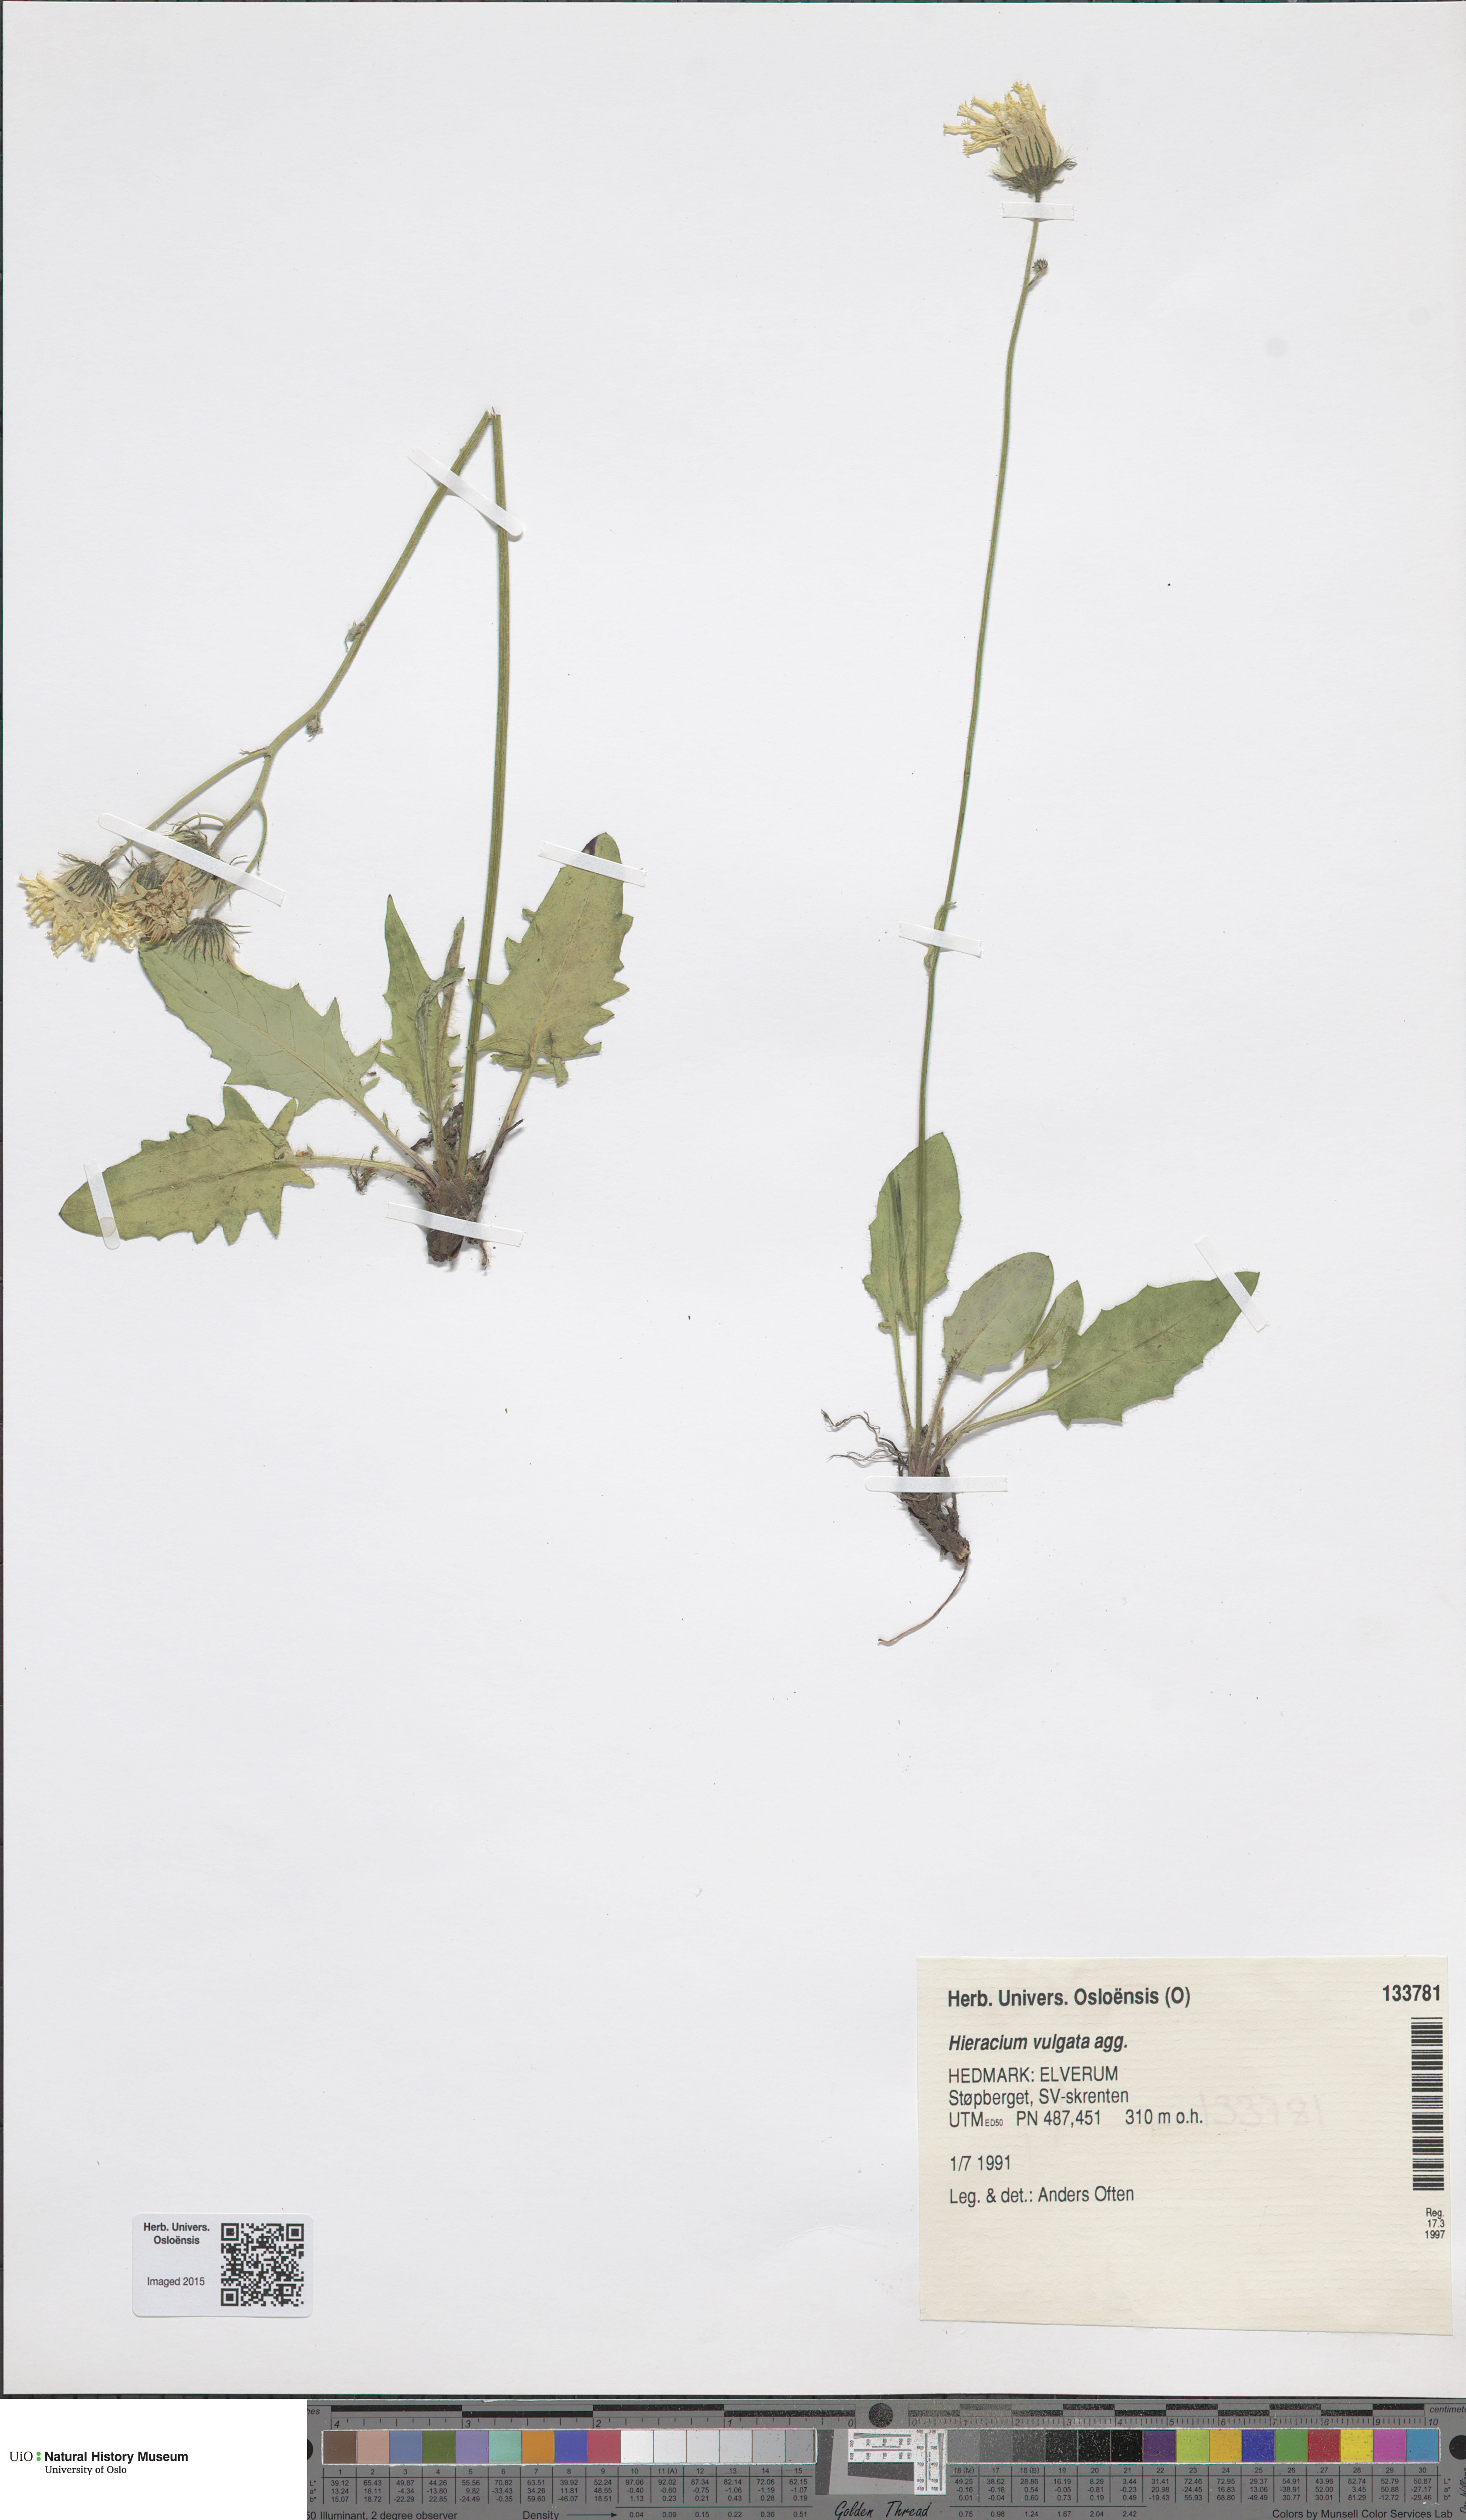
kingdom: Plantae
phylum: Tracheophyta
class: Magnoliopsida
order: Asterales
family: Asteraceae
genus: Hieracium
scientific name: Hieracium vulgatum
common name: Common hawkweed
